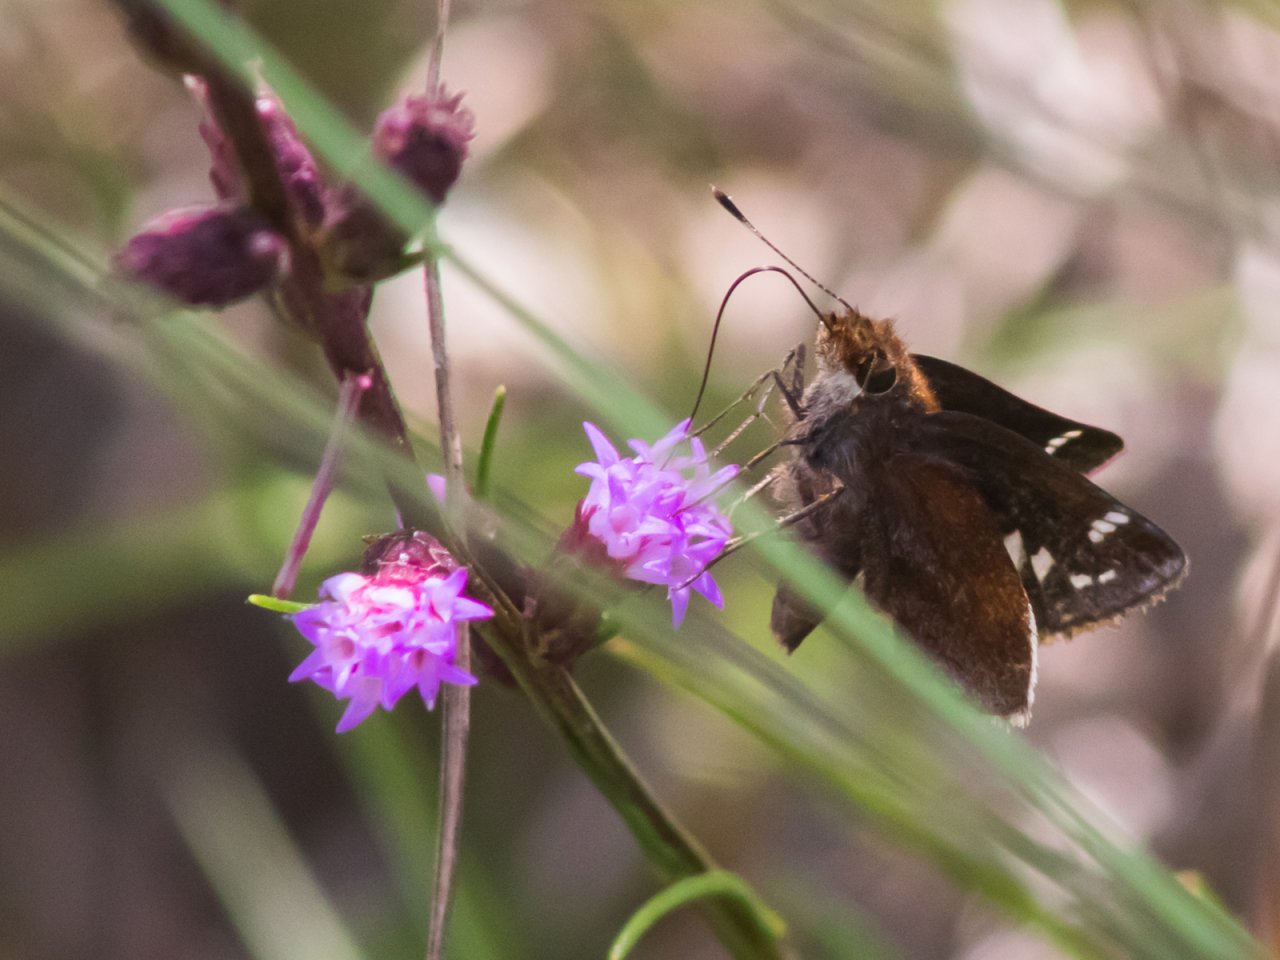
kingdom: Animalia
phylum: Arthropoda
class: Insecta
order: Lepidoptera
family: Hesperiidae
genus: Lon
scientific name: Lon zabulon
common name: Zabulon Skipper
